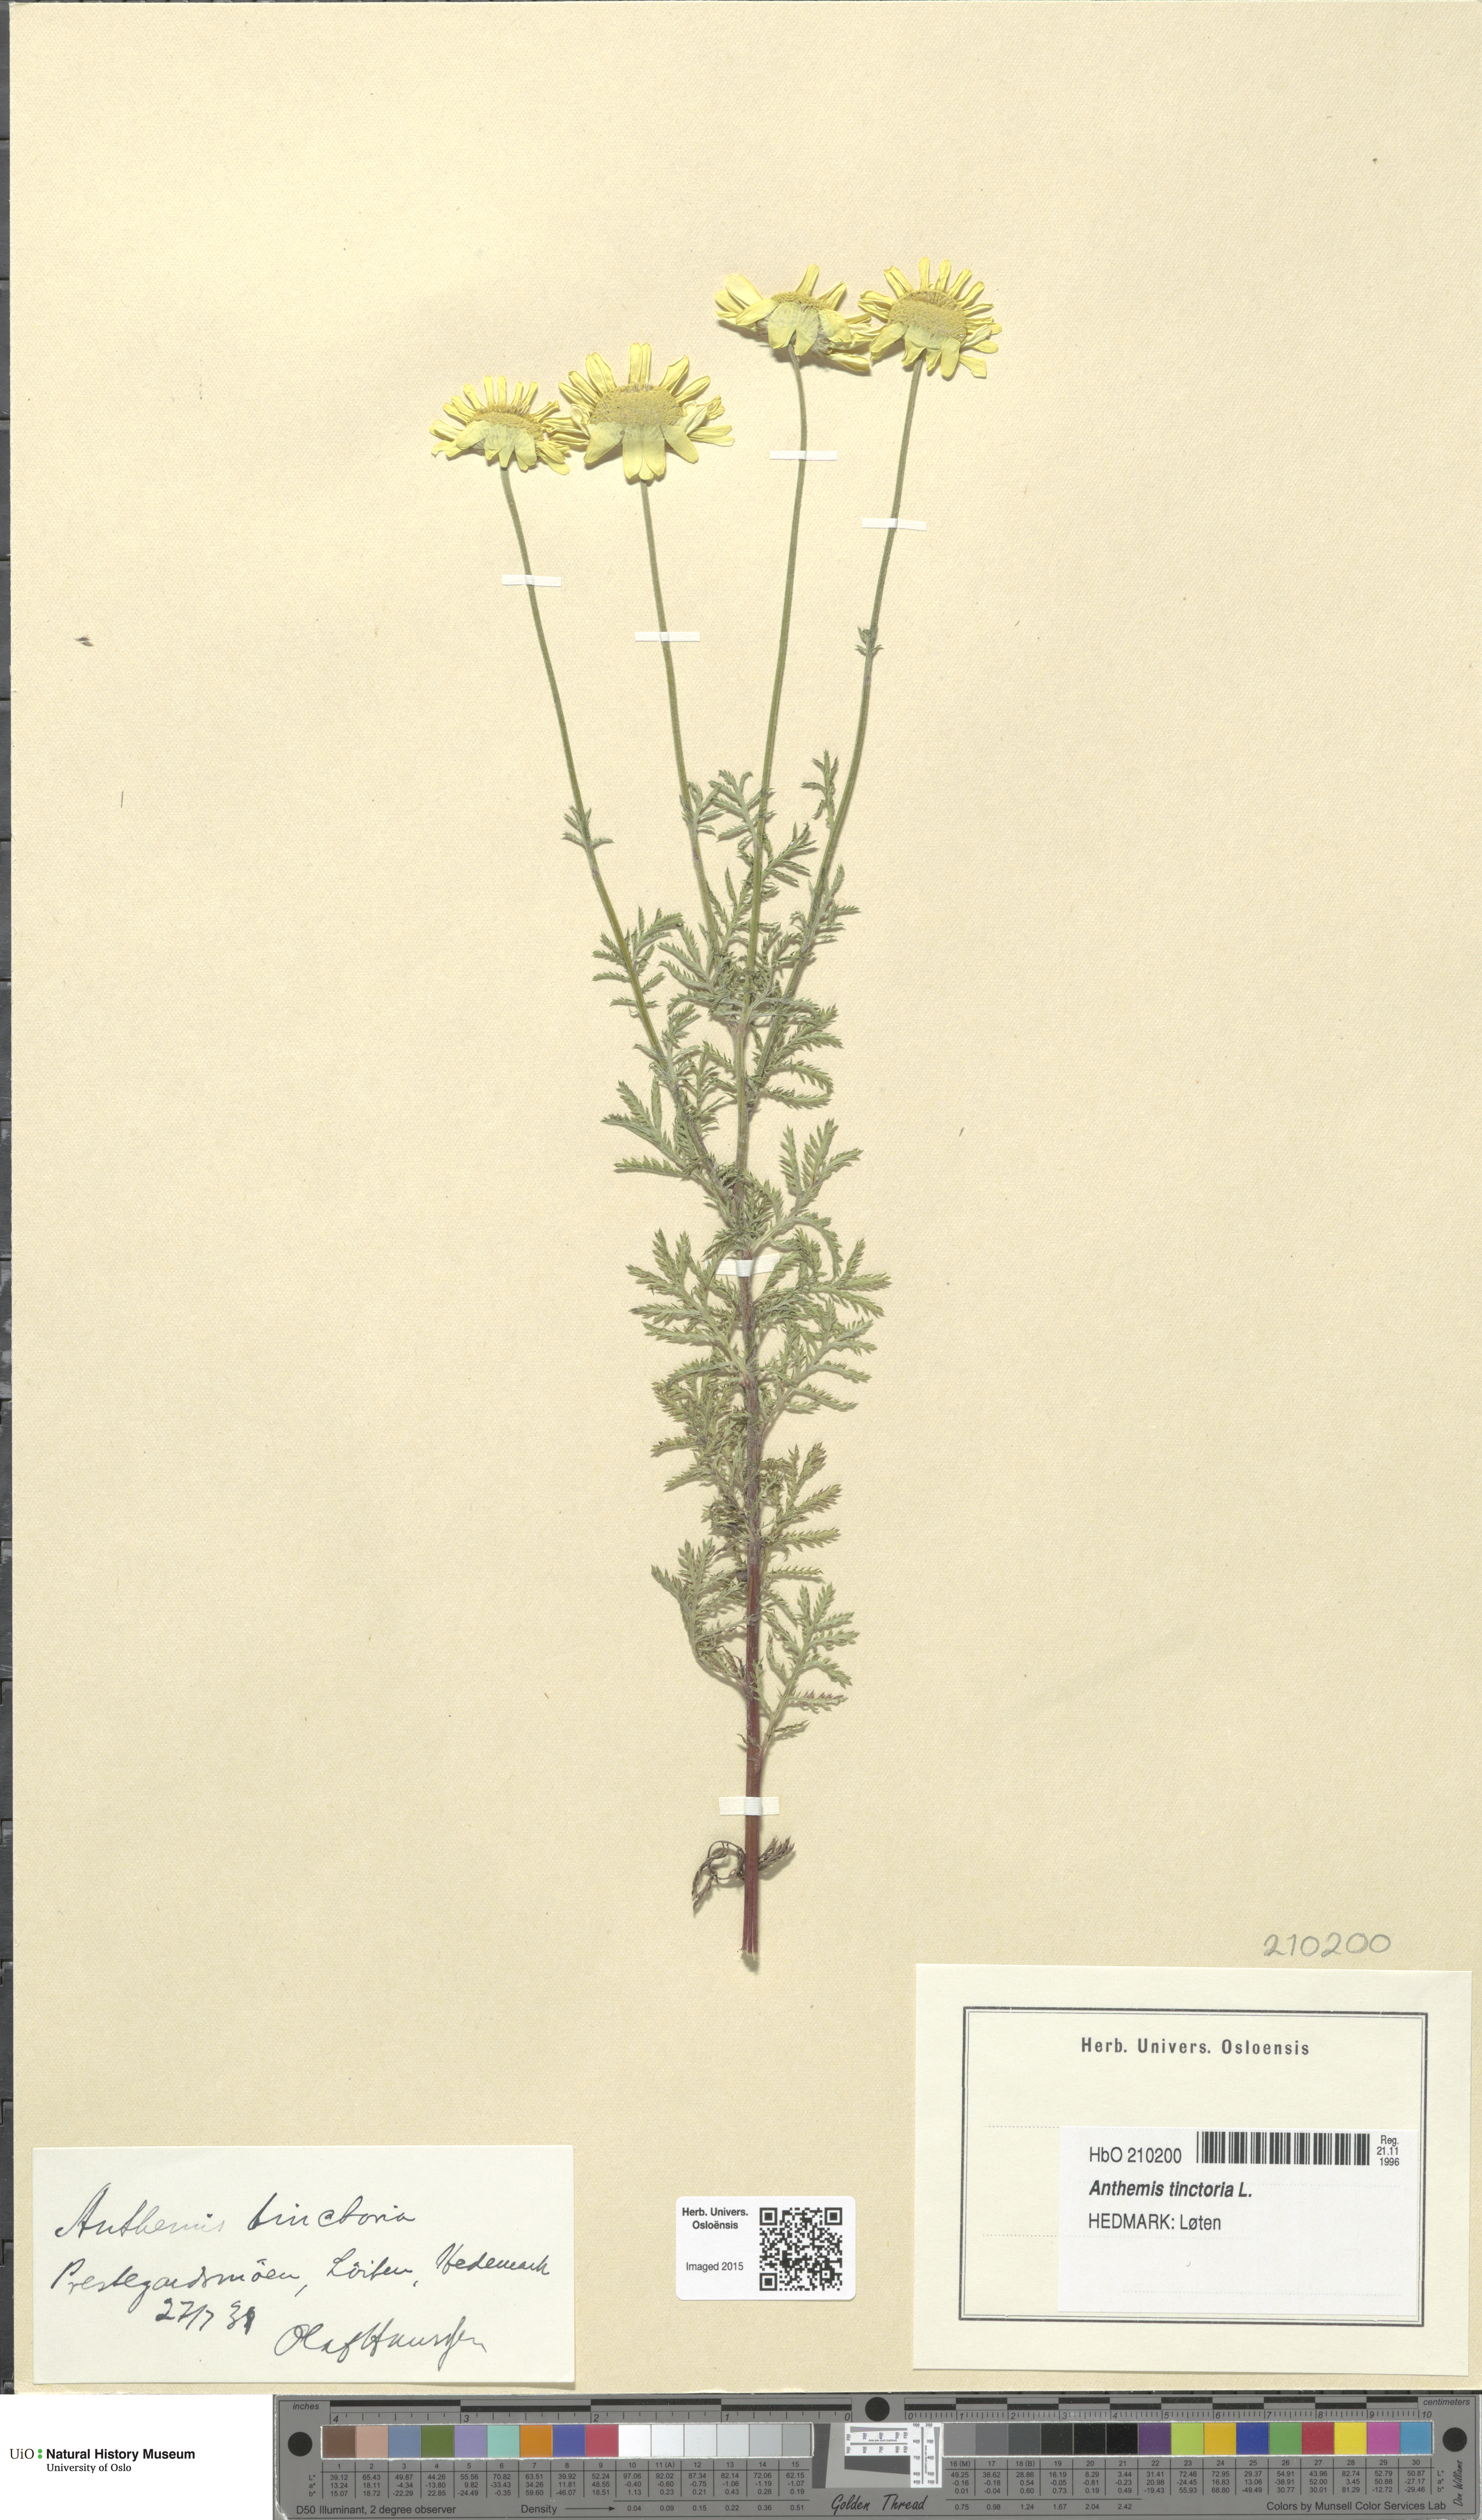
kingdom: Plantae
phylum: Tracheophyta
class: Magnoliopsida
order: Asterales
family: Asteraceae
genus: Cota
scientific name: Cota tinctoria
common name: Golden chamomile
